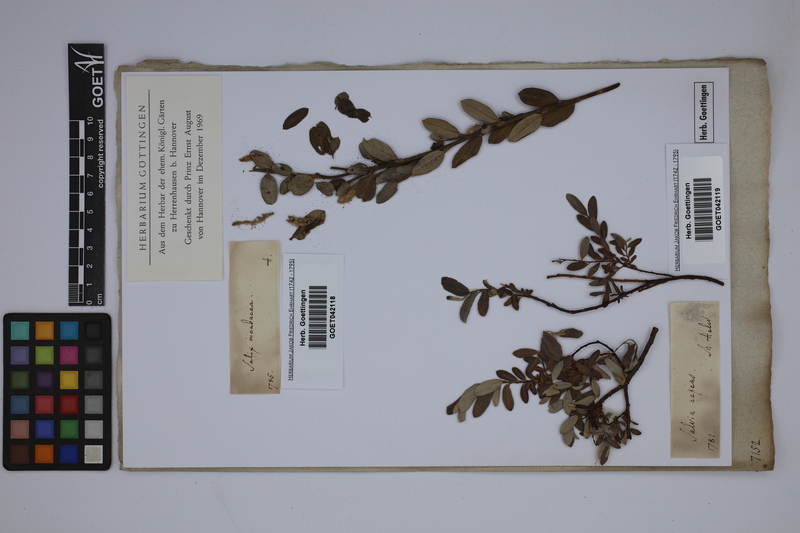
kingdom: Plantae
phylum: Tracheophyta
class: Magnoliopsida
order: Malpighiales
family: Salicaceae
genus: Salix
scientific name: Salix incubacea
